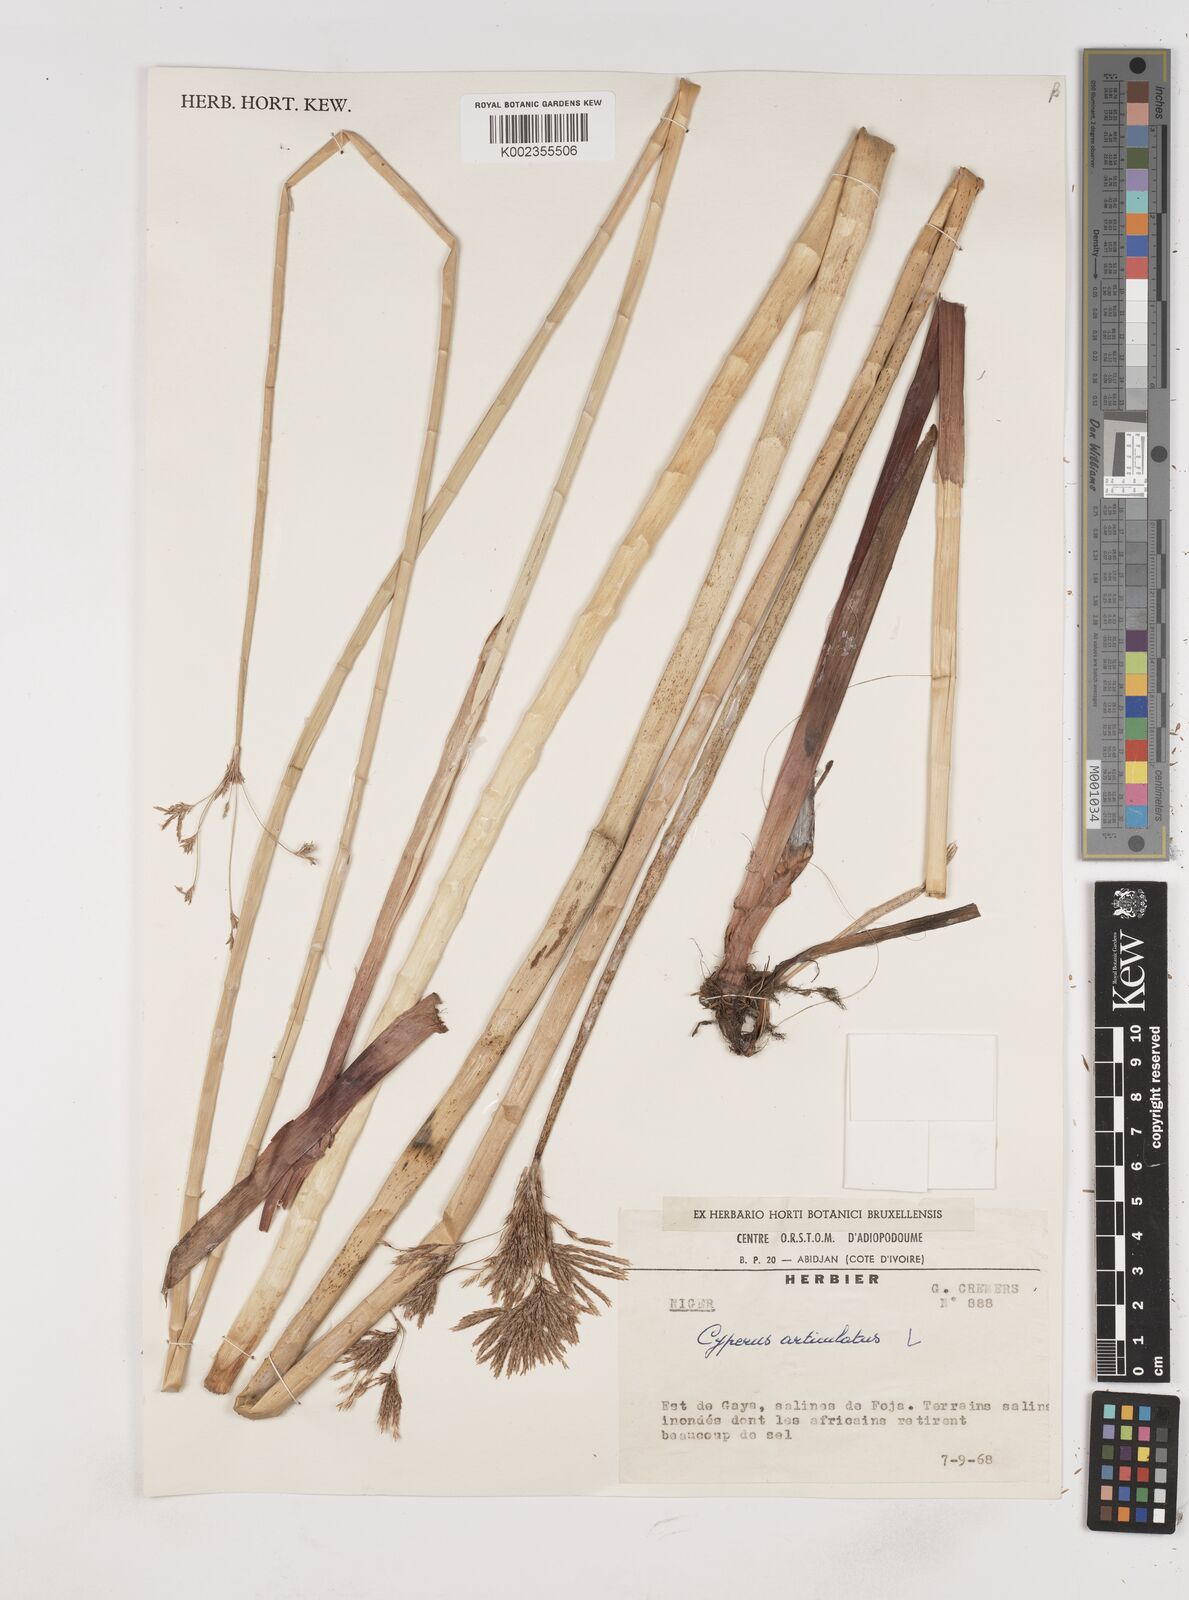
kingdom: Plantae
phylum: Tracheophyta
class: Liliopsida
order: Poales
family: Cyperaceae
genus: Cyperus
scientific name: Cyperus articulatus
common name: Jointed flatsedge
